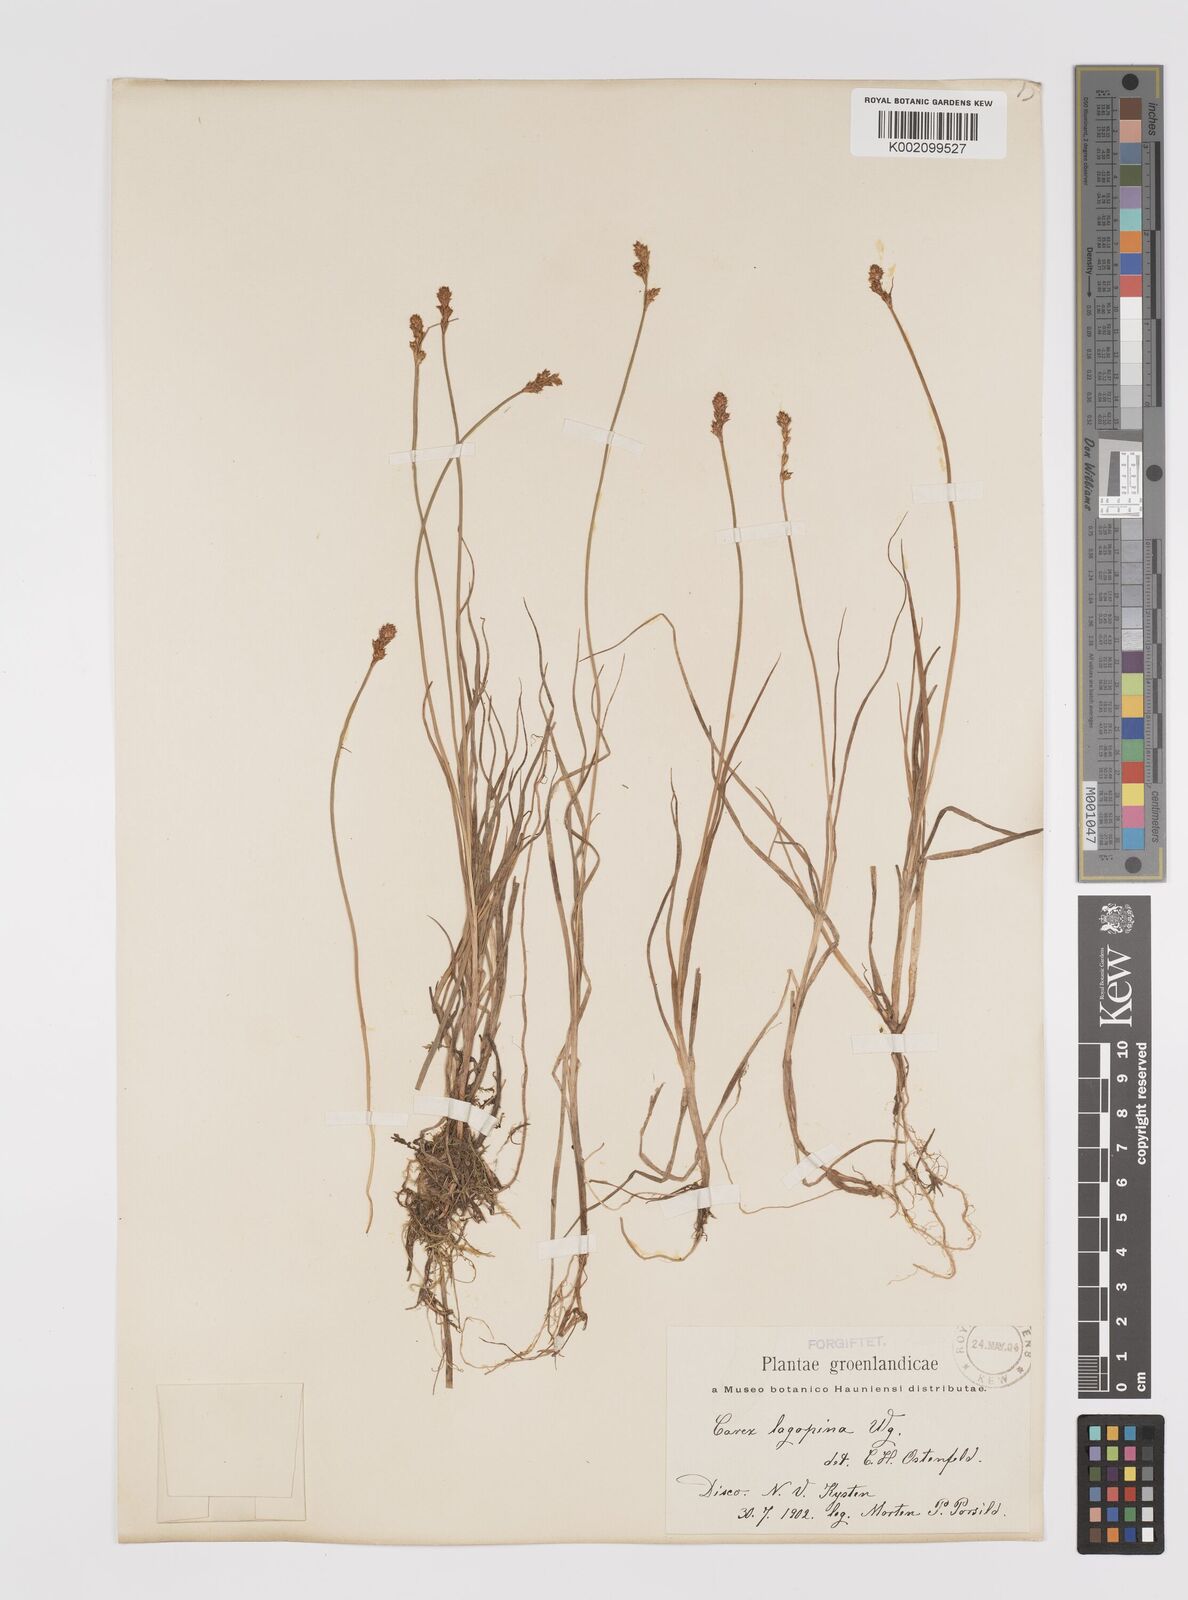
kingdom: Plantae
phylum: Tracheophyta
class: Liliopsida
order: Poales
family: Cyperaceae
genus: Carex
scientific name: Carex lachenalii
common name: Hare's-foot sedge
